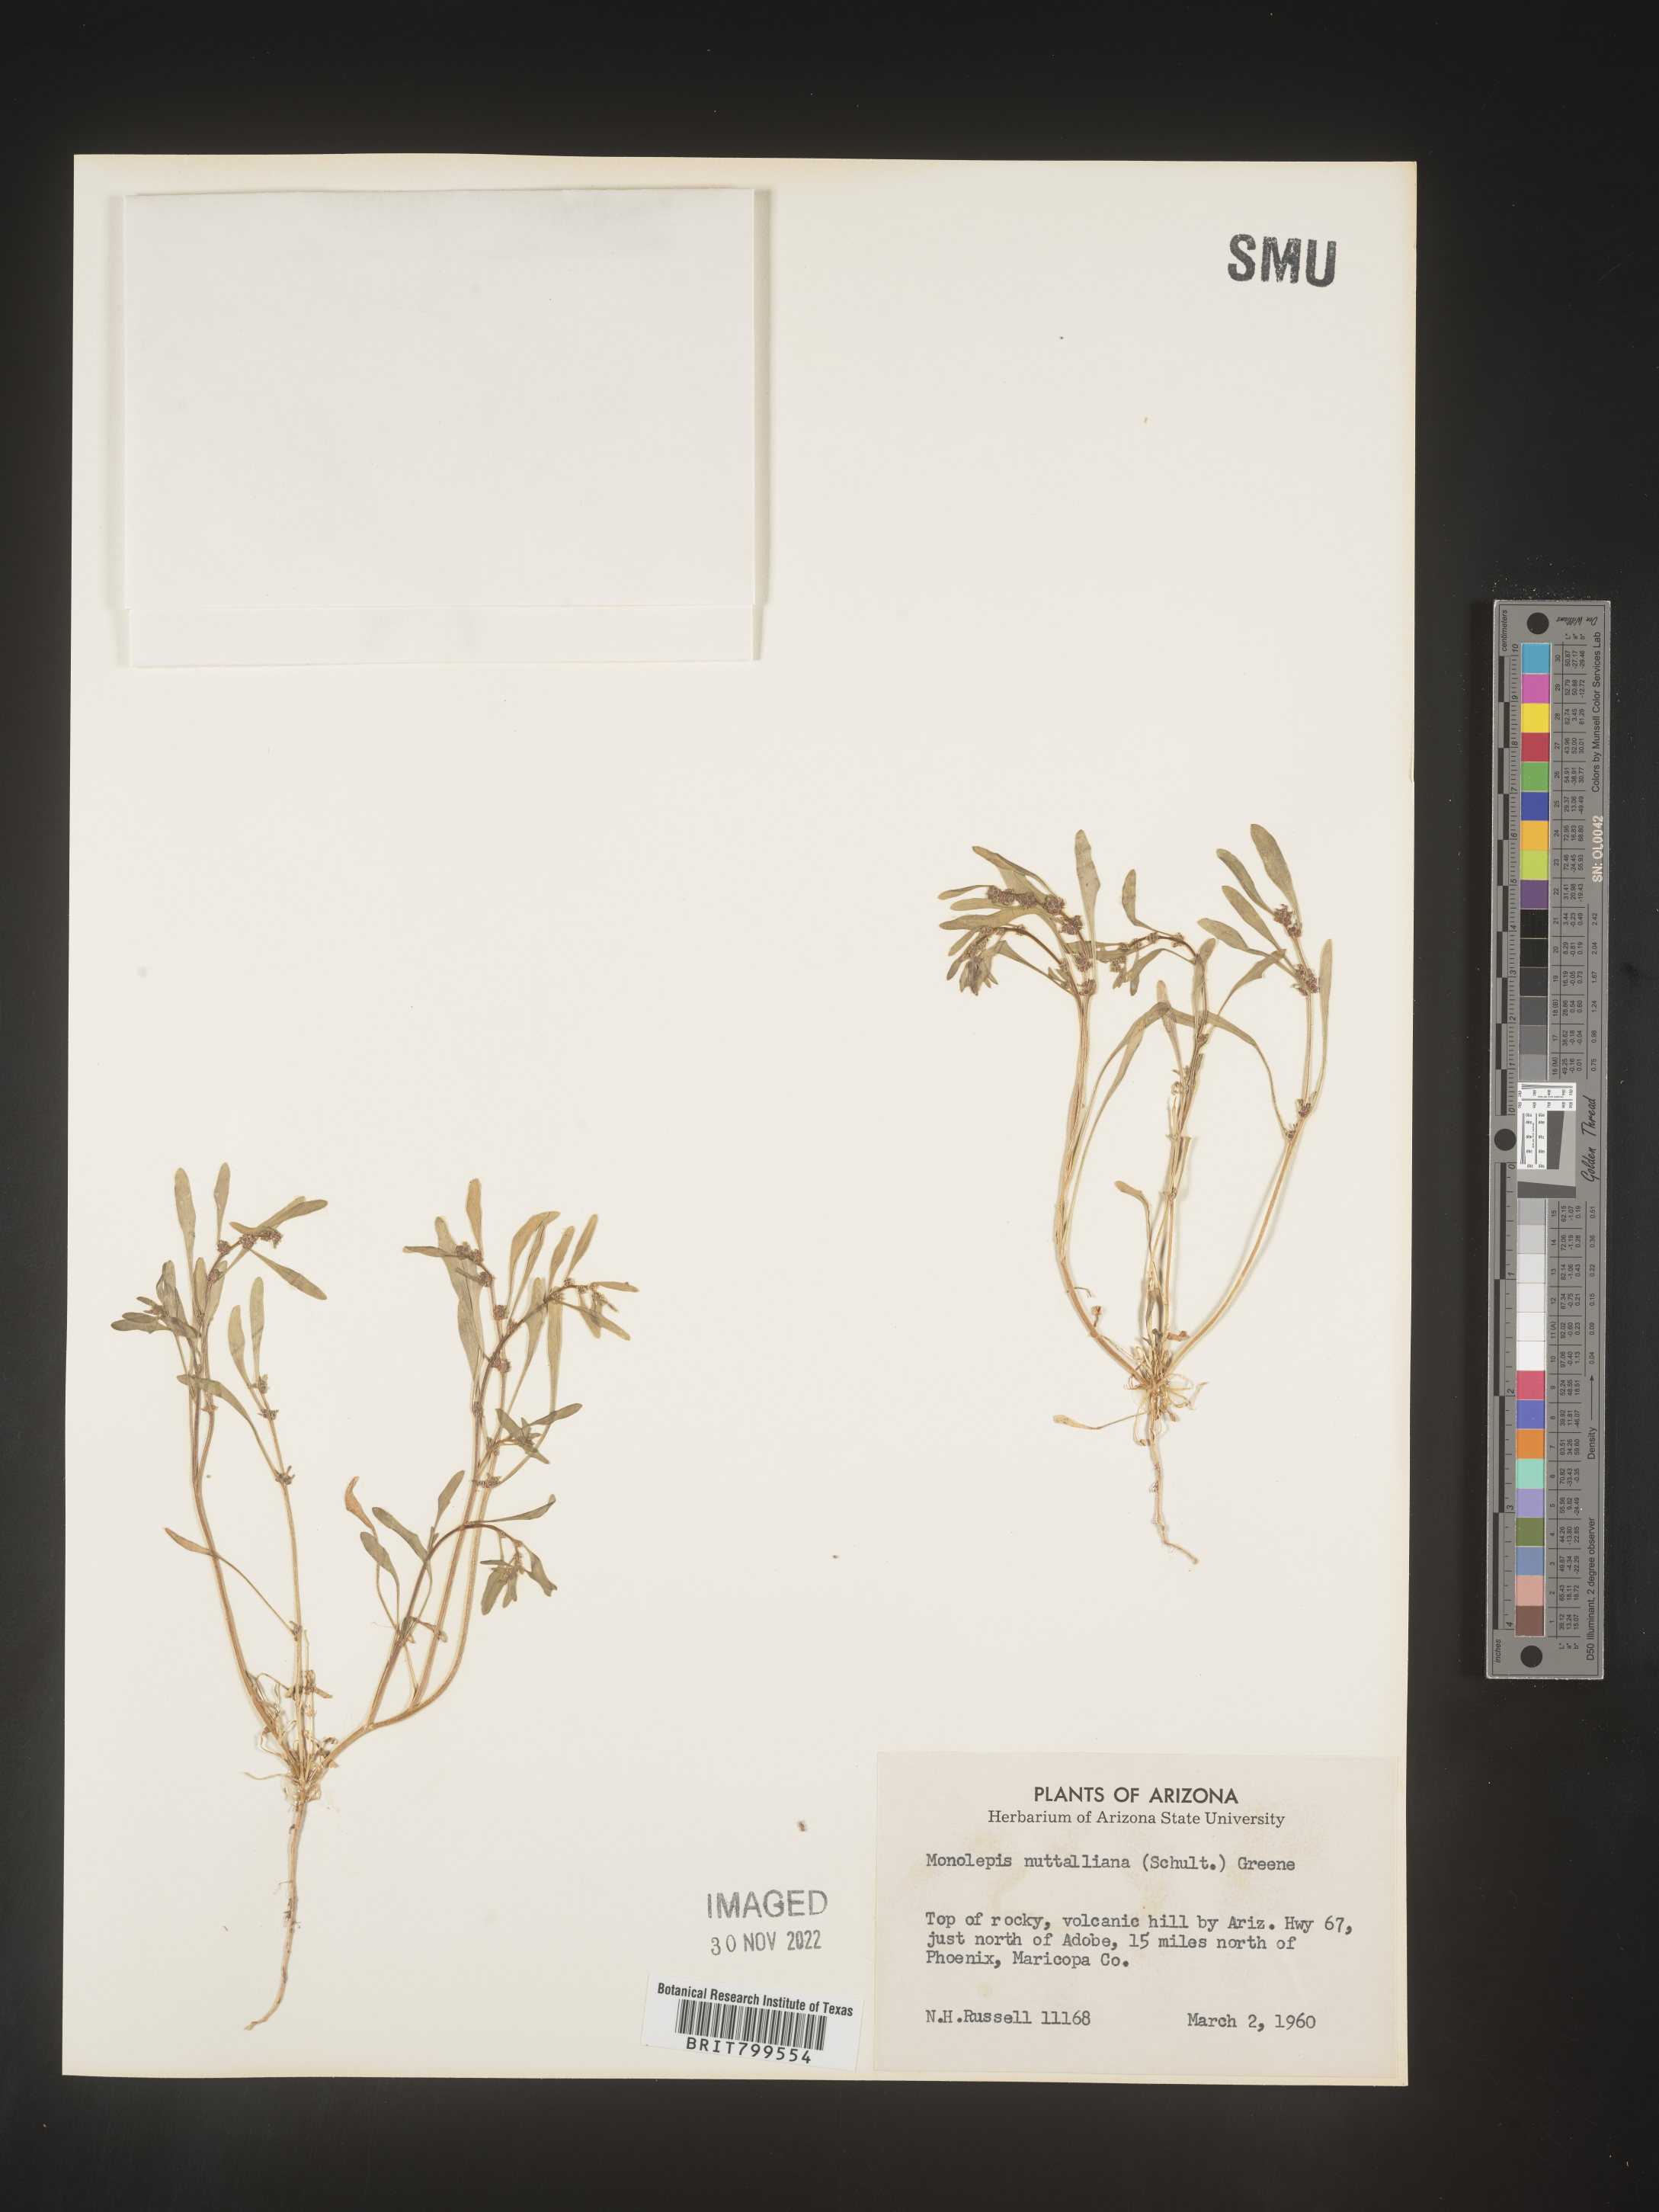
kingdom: Plantae
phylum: Tracheophyta
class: Magnoliopsida
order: Caryophyllales
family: Amaranthaceae
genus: Blitum
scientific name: Blitum
